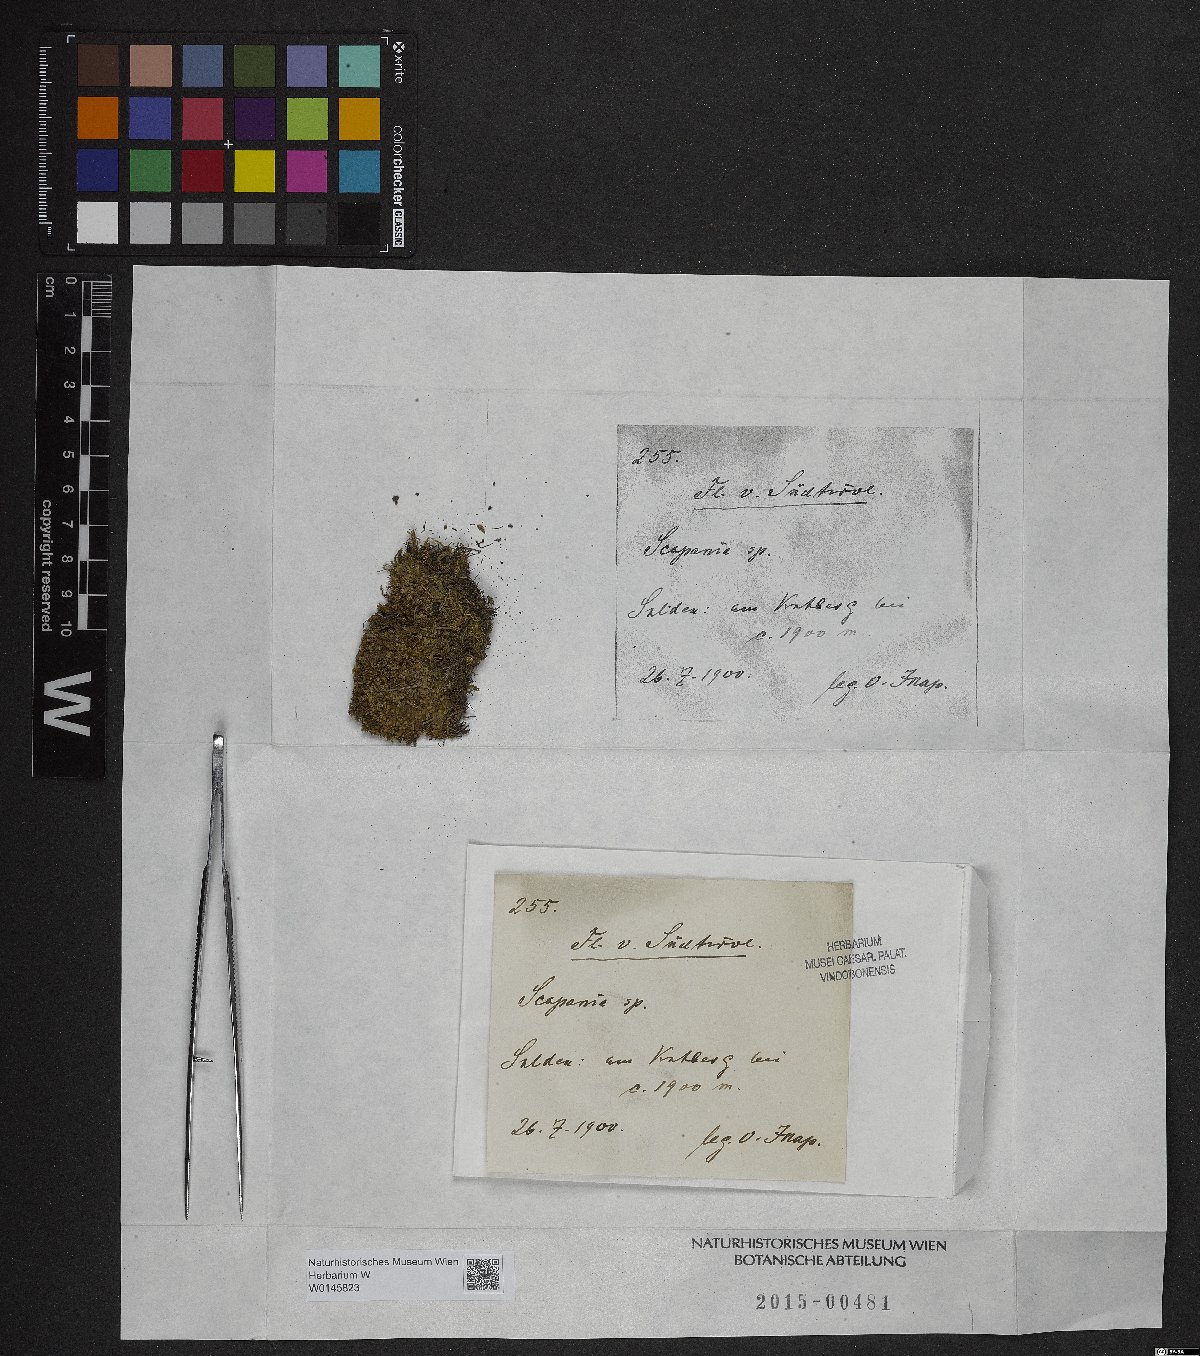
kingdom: Plantae
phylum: Marchantiophyta
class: Jungermanniopsida
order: Jungermanniales
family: Scapaniaceae
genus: Scapania
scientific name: Scapania
